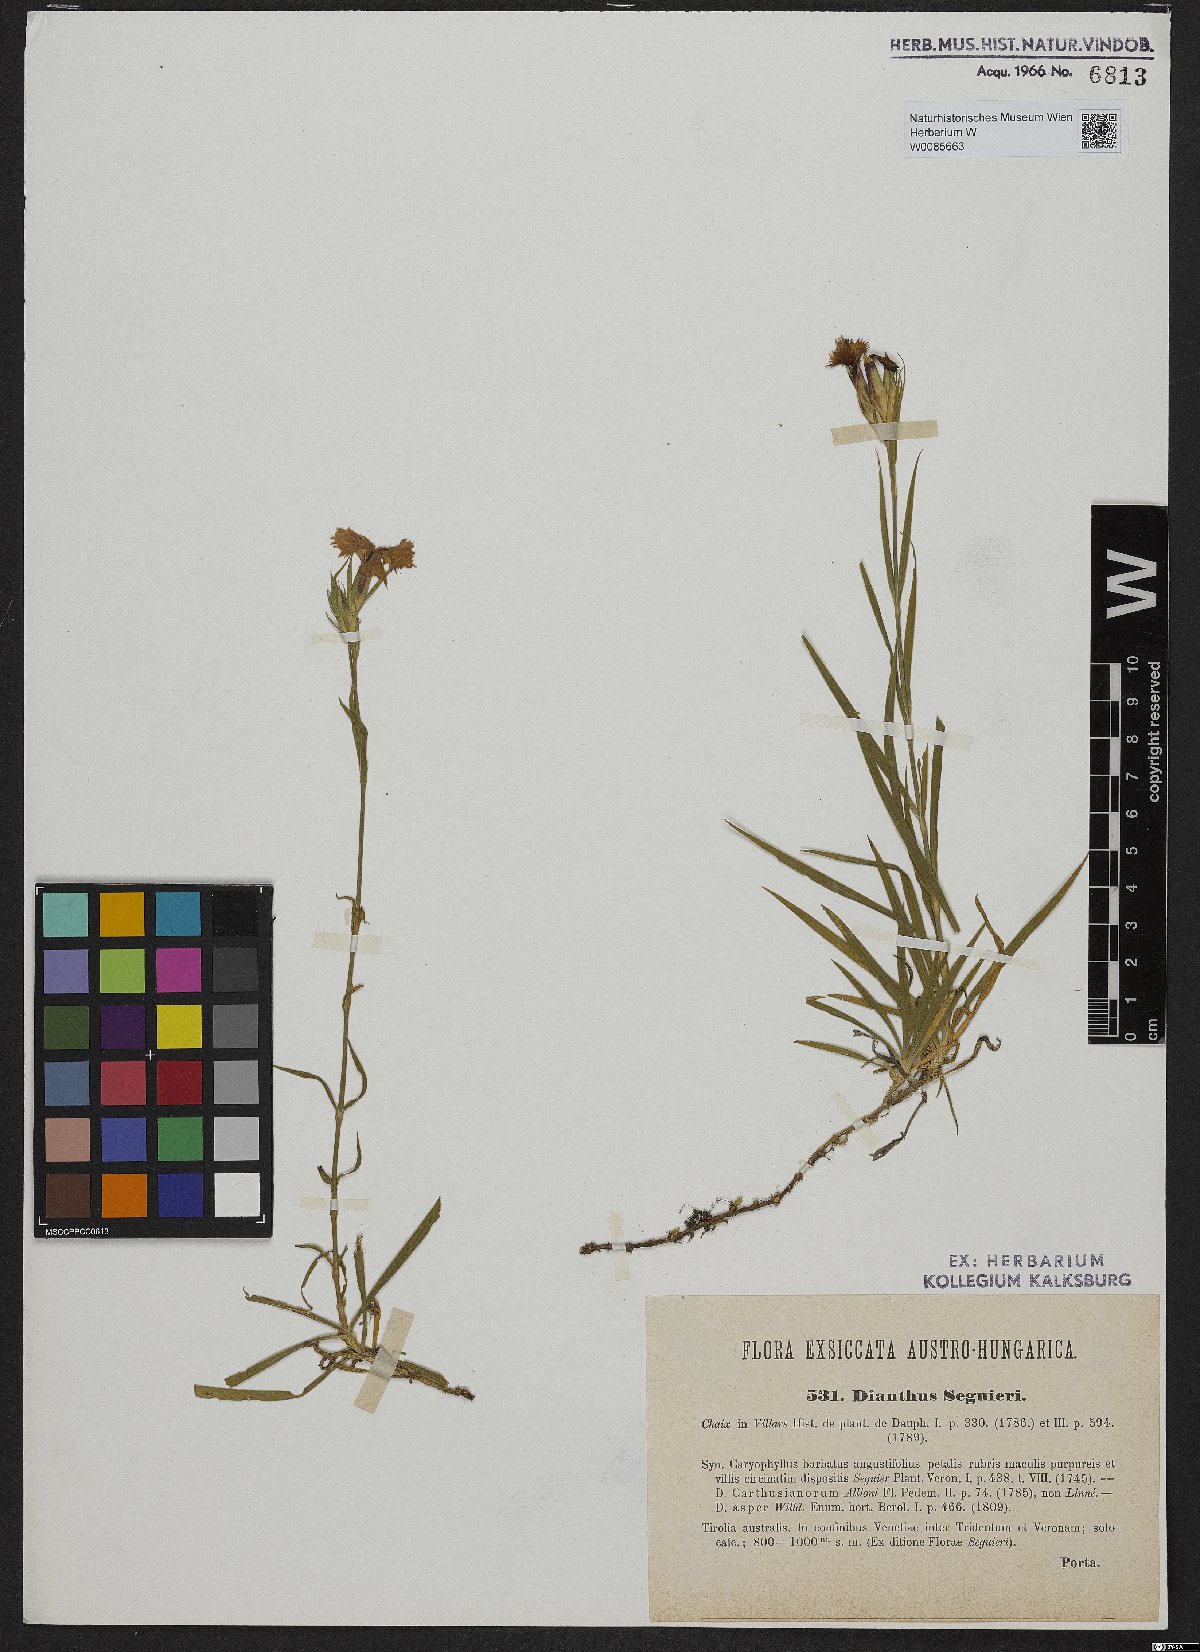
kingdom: Plantae
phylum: Tracheophyta
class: Magnoliopsida
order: Caryophyllales
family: Caryophyllaceae
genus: Dianthus
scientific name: Dianthus seguieri
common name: Ragged pink
